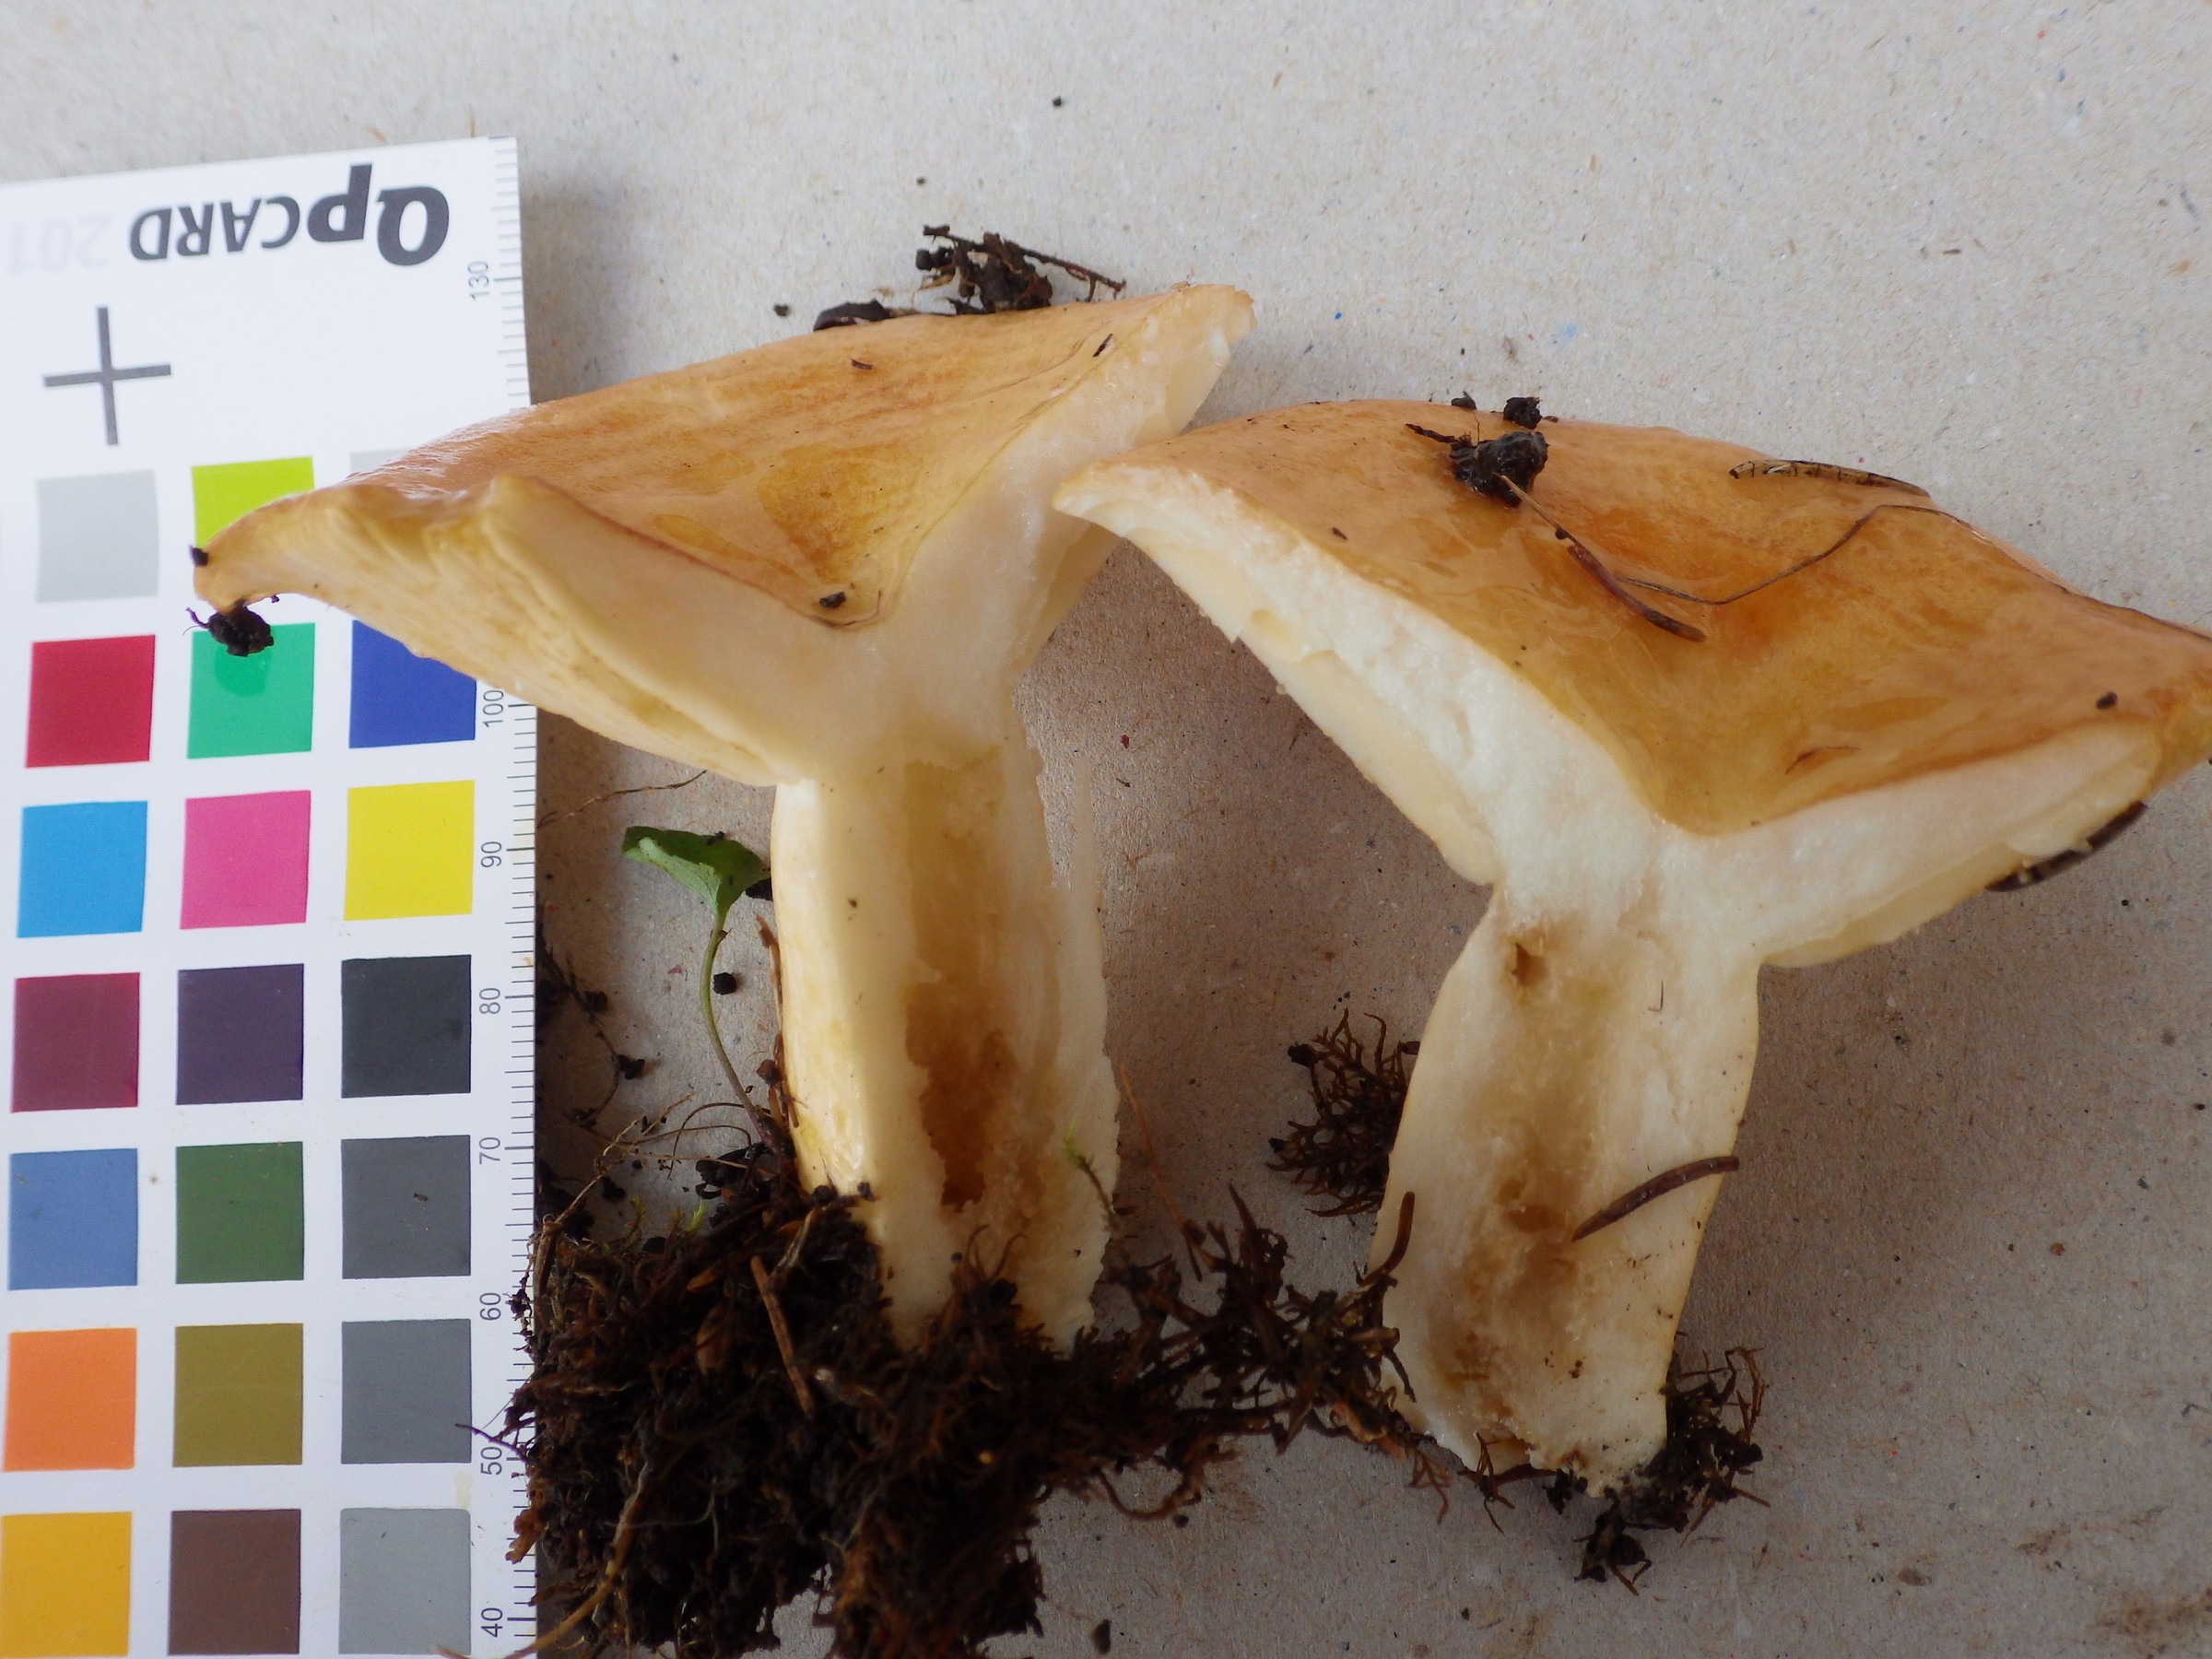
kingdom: Fungi
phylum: Basidiomycota
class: Agaricomycetes
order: Russulales
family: Russulaceae
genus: Lactarius
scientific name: Lactarius zonarioides
